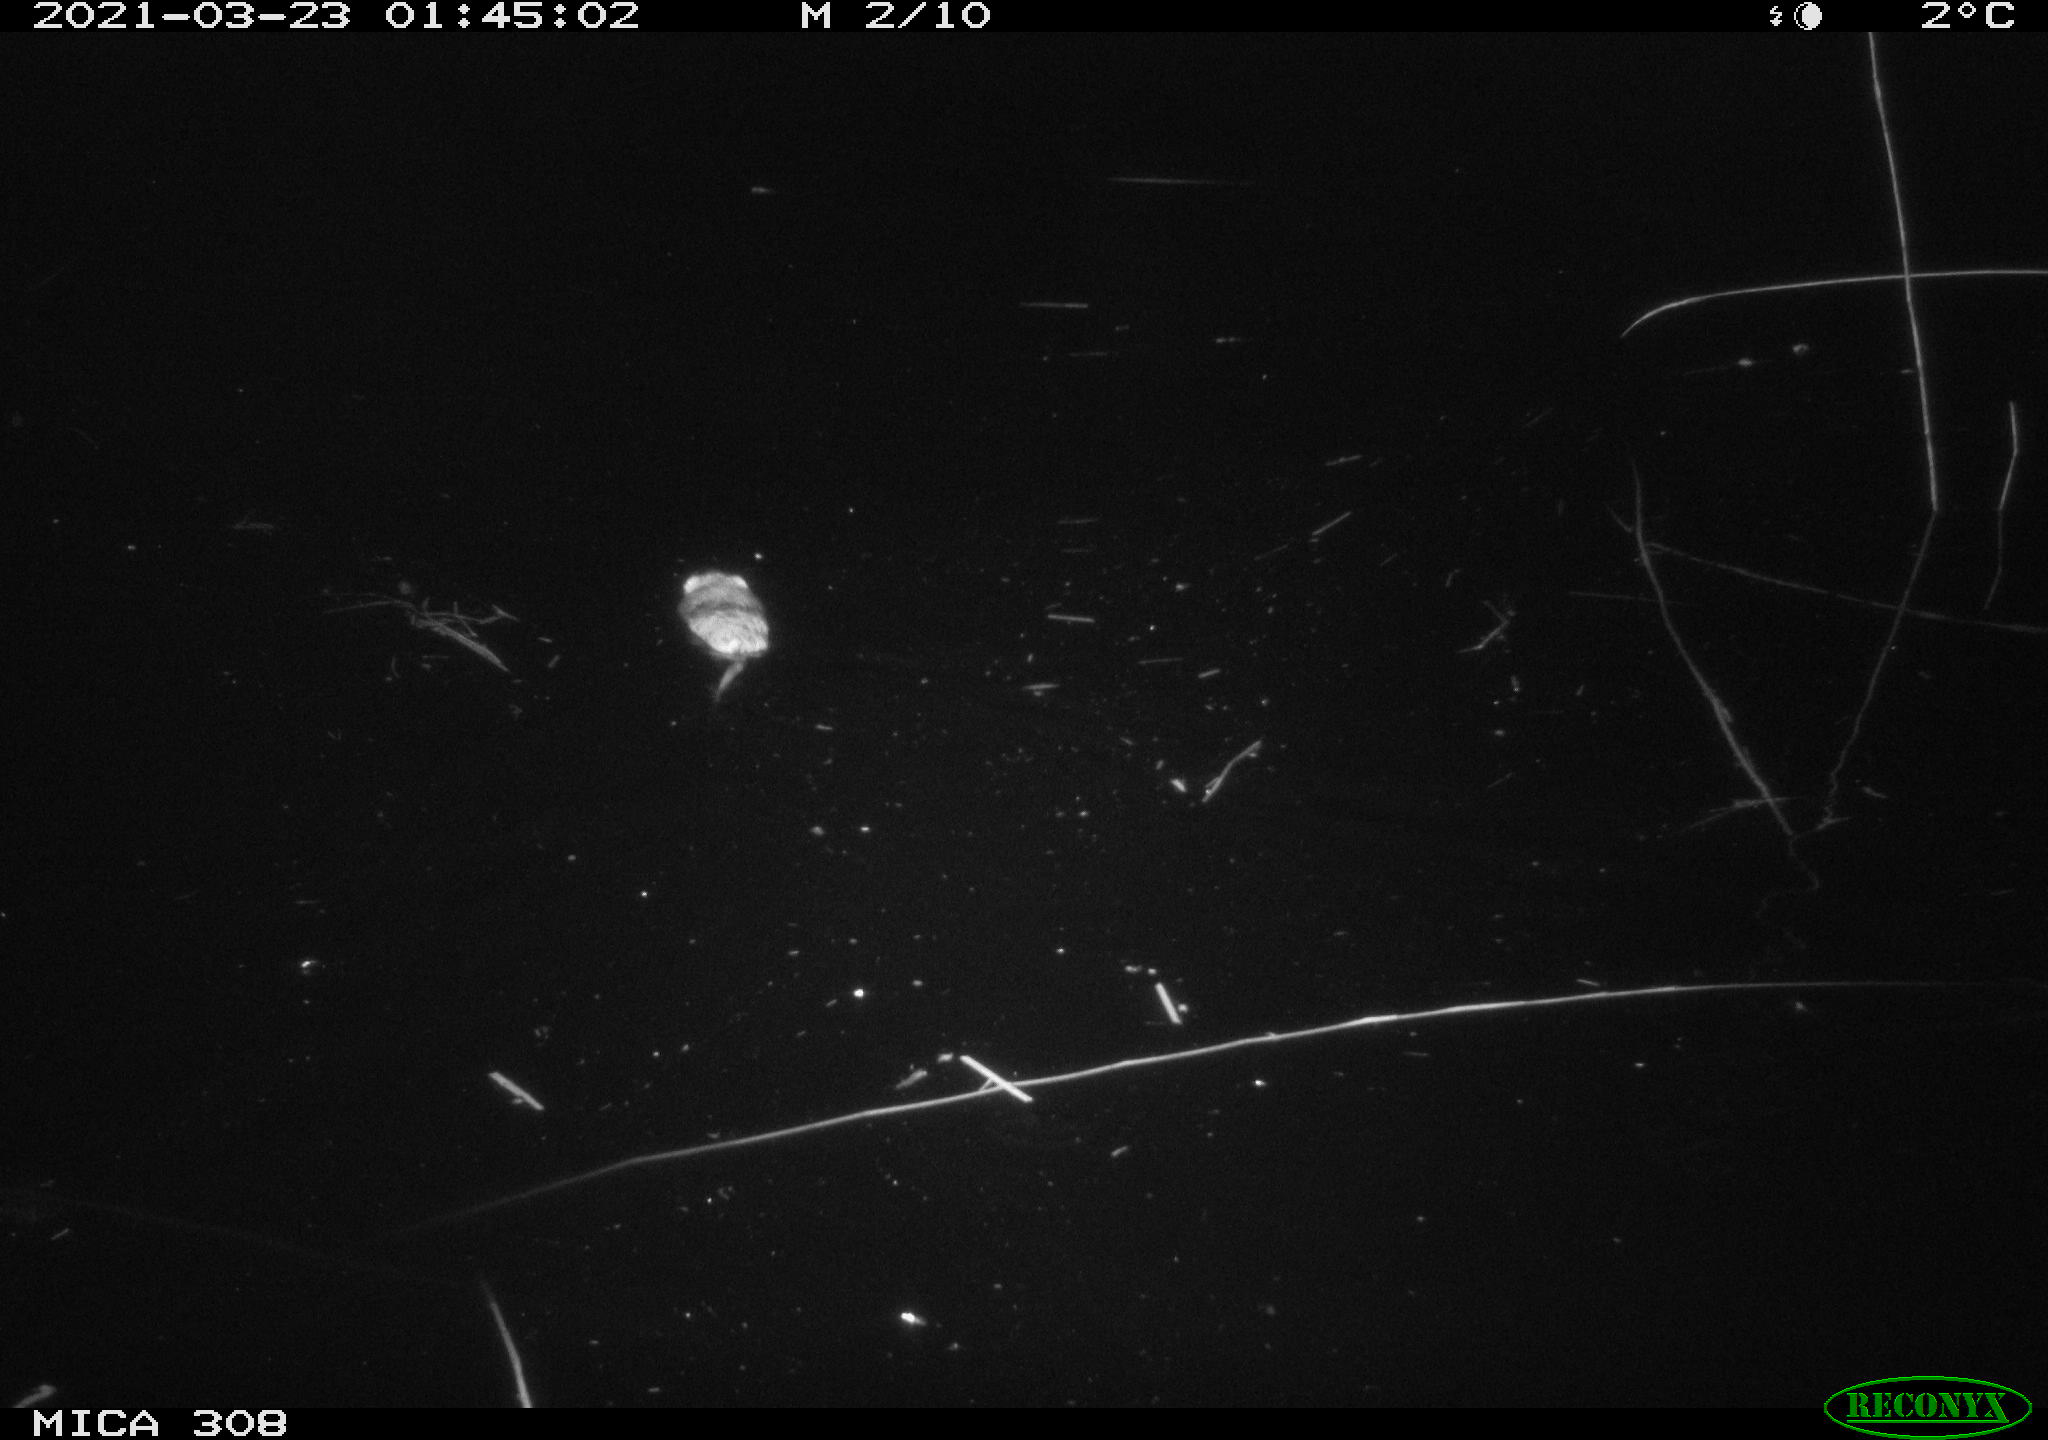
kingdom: Animalia
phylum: Chordata
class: Mammalia
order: Rodentia
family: Cricetidae
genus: Ondatra
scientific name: Ondatra zibethicus
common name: Muskrat
